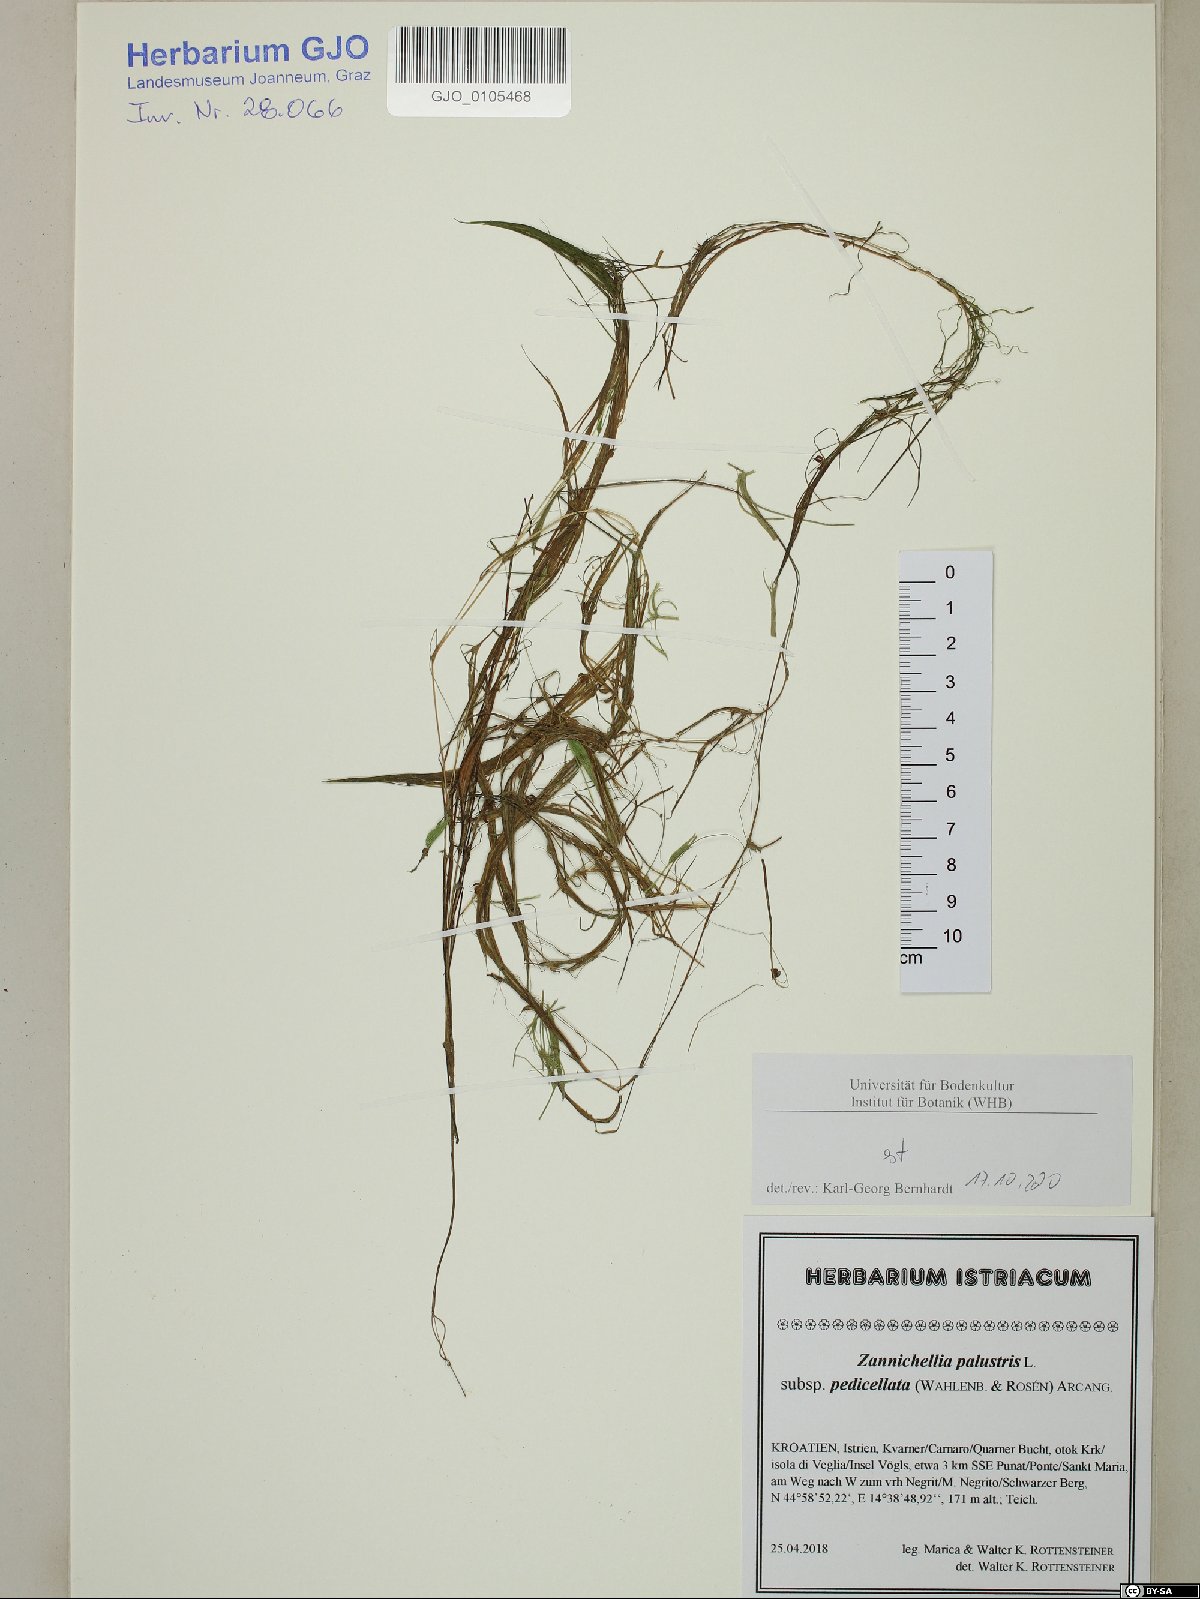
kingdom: Plantae
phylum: Tracheophyta
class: Liliopsida
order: Alismatales
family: Potamogetonaceae
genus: Zannichellia
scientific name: Zannichellia palustris
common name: Horned pondweed
